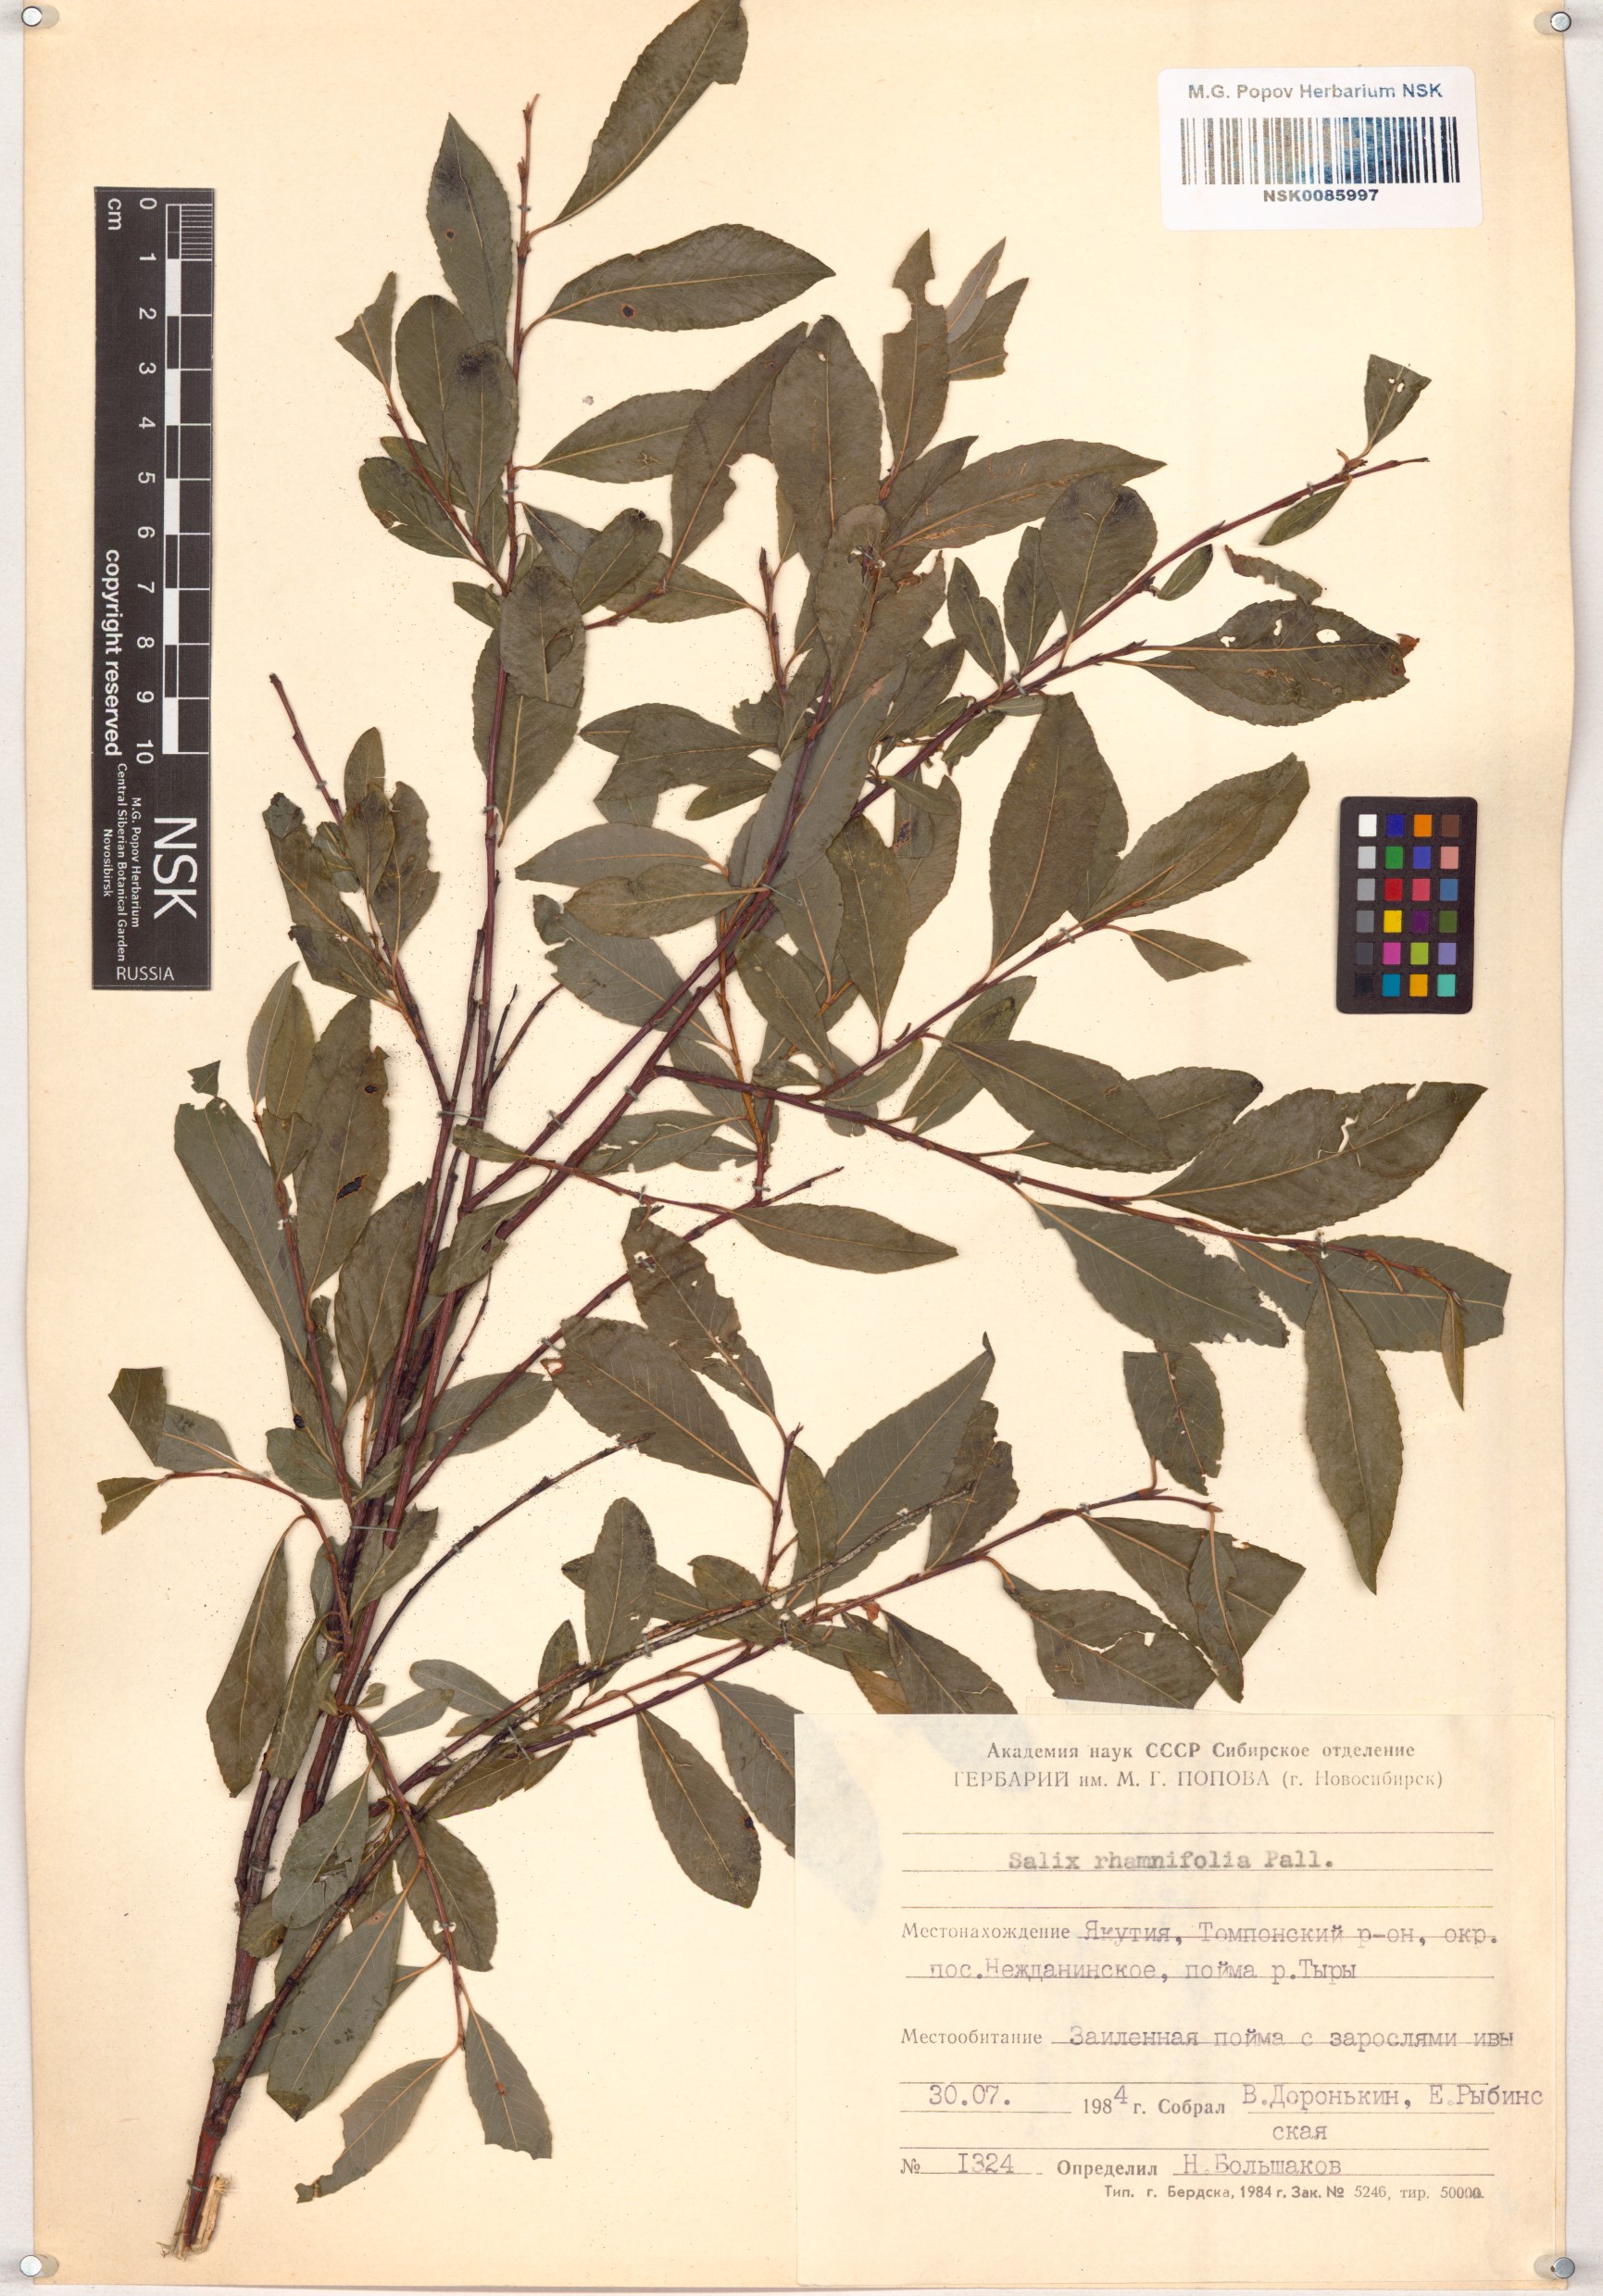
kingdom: Plantae
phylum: Tracheophyta
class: Magnoliopsida
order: Malpighiales
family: Salicaceae
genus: Salix
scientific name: Salix rhamnifolia
